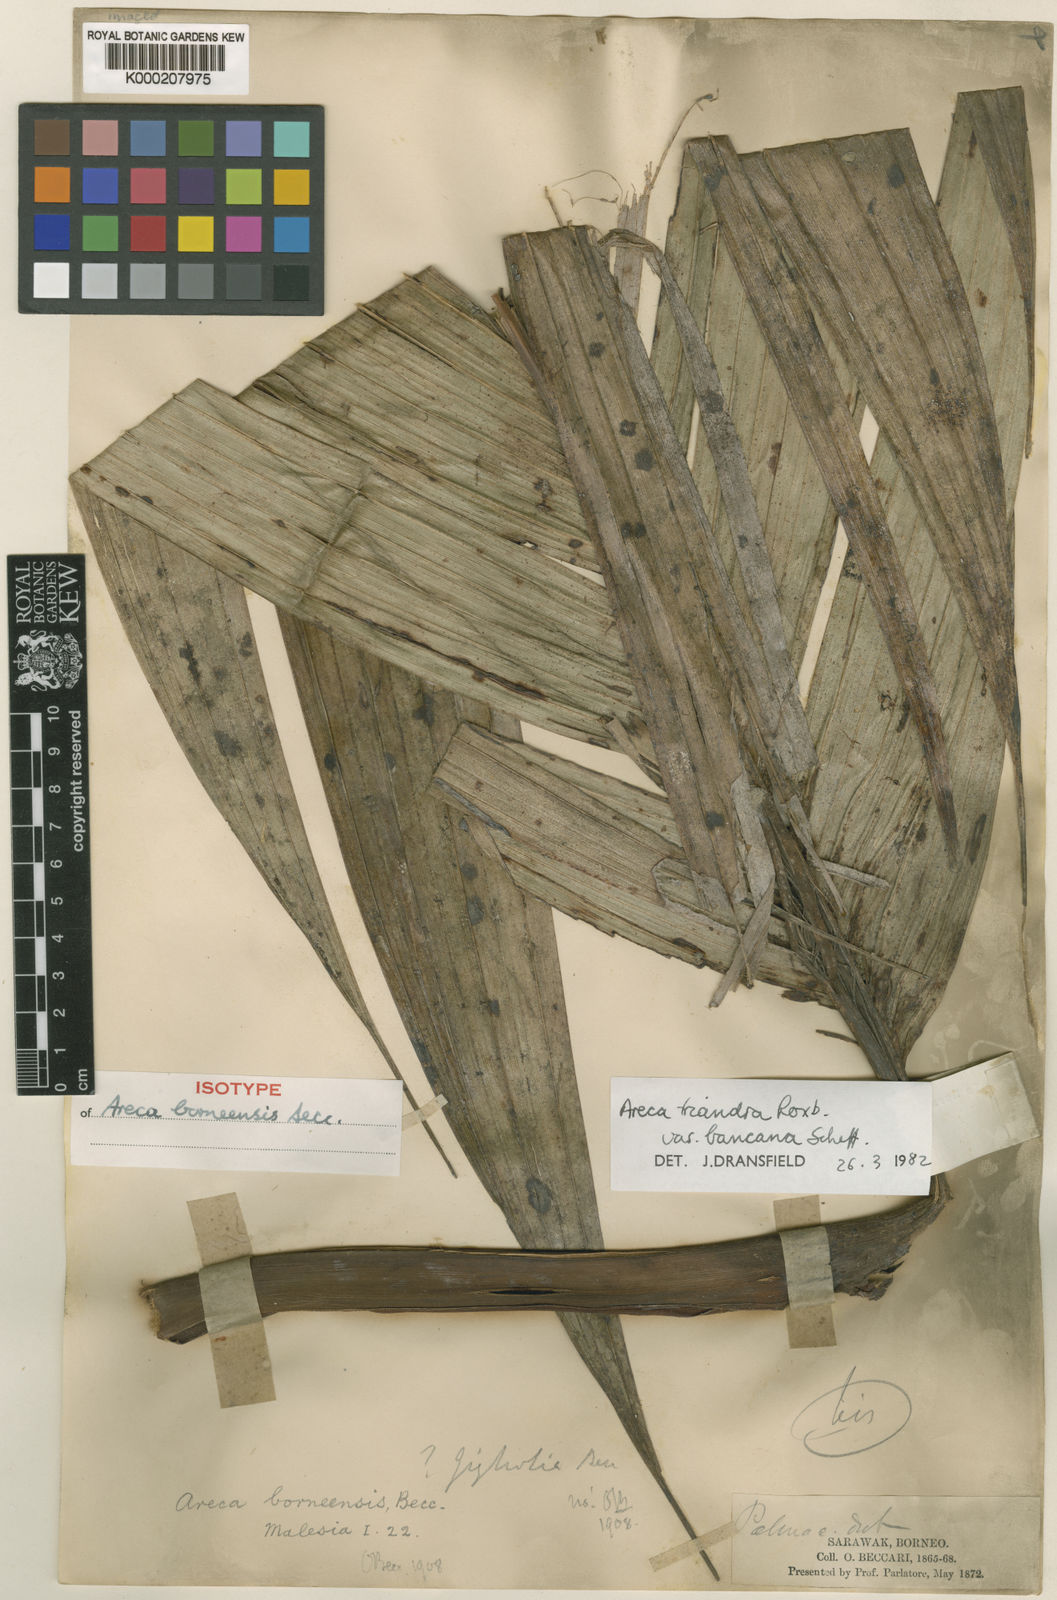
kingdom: Plantae
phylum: Tracheophyta
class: Liliopsida
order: Arecales
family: Arecaceae
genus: Areca
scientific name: Areca triandra
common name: Australian areca palm
